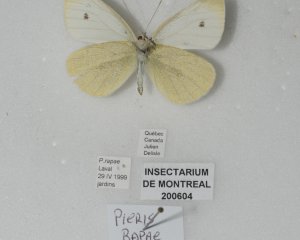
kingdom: Animalia
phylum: Arthropoda
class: Insecta
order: Lepidoptera
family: Pieridae
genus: Pieris
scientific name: Pieris rapae
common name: Cabbage White
